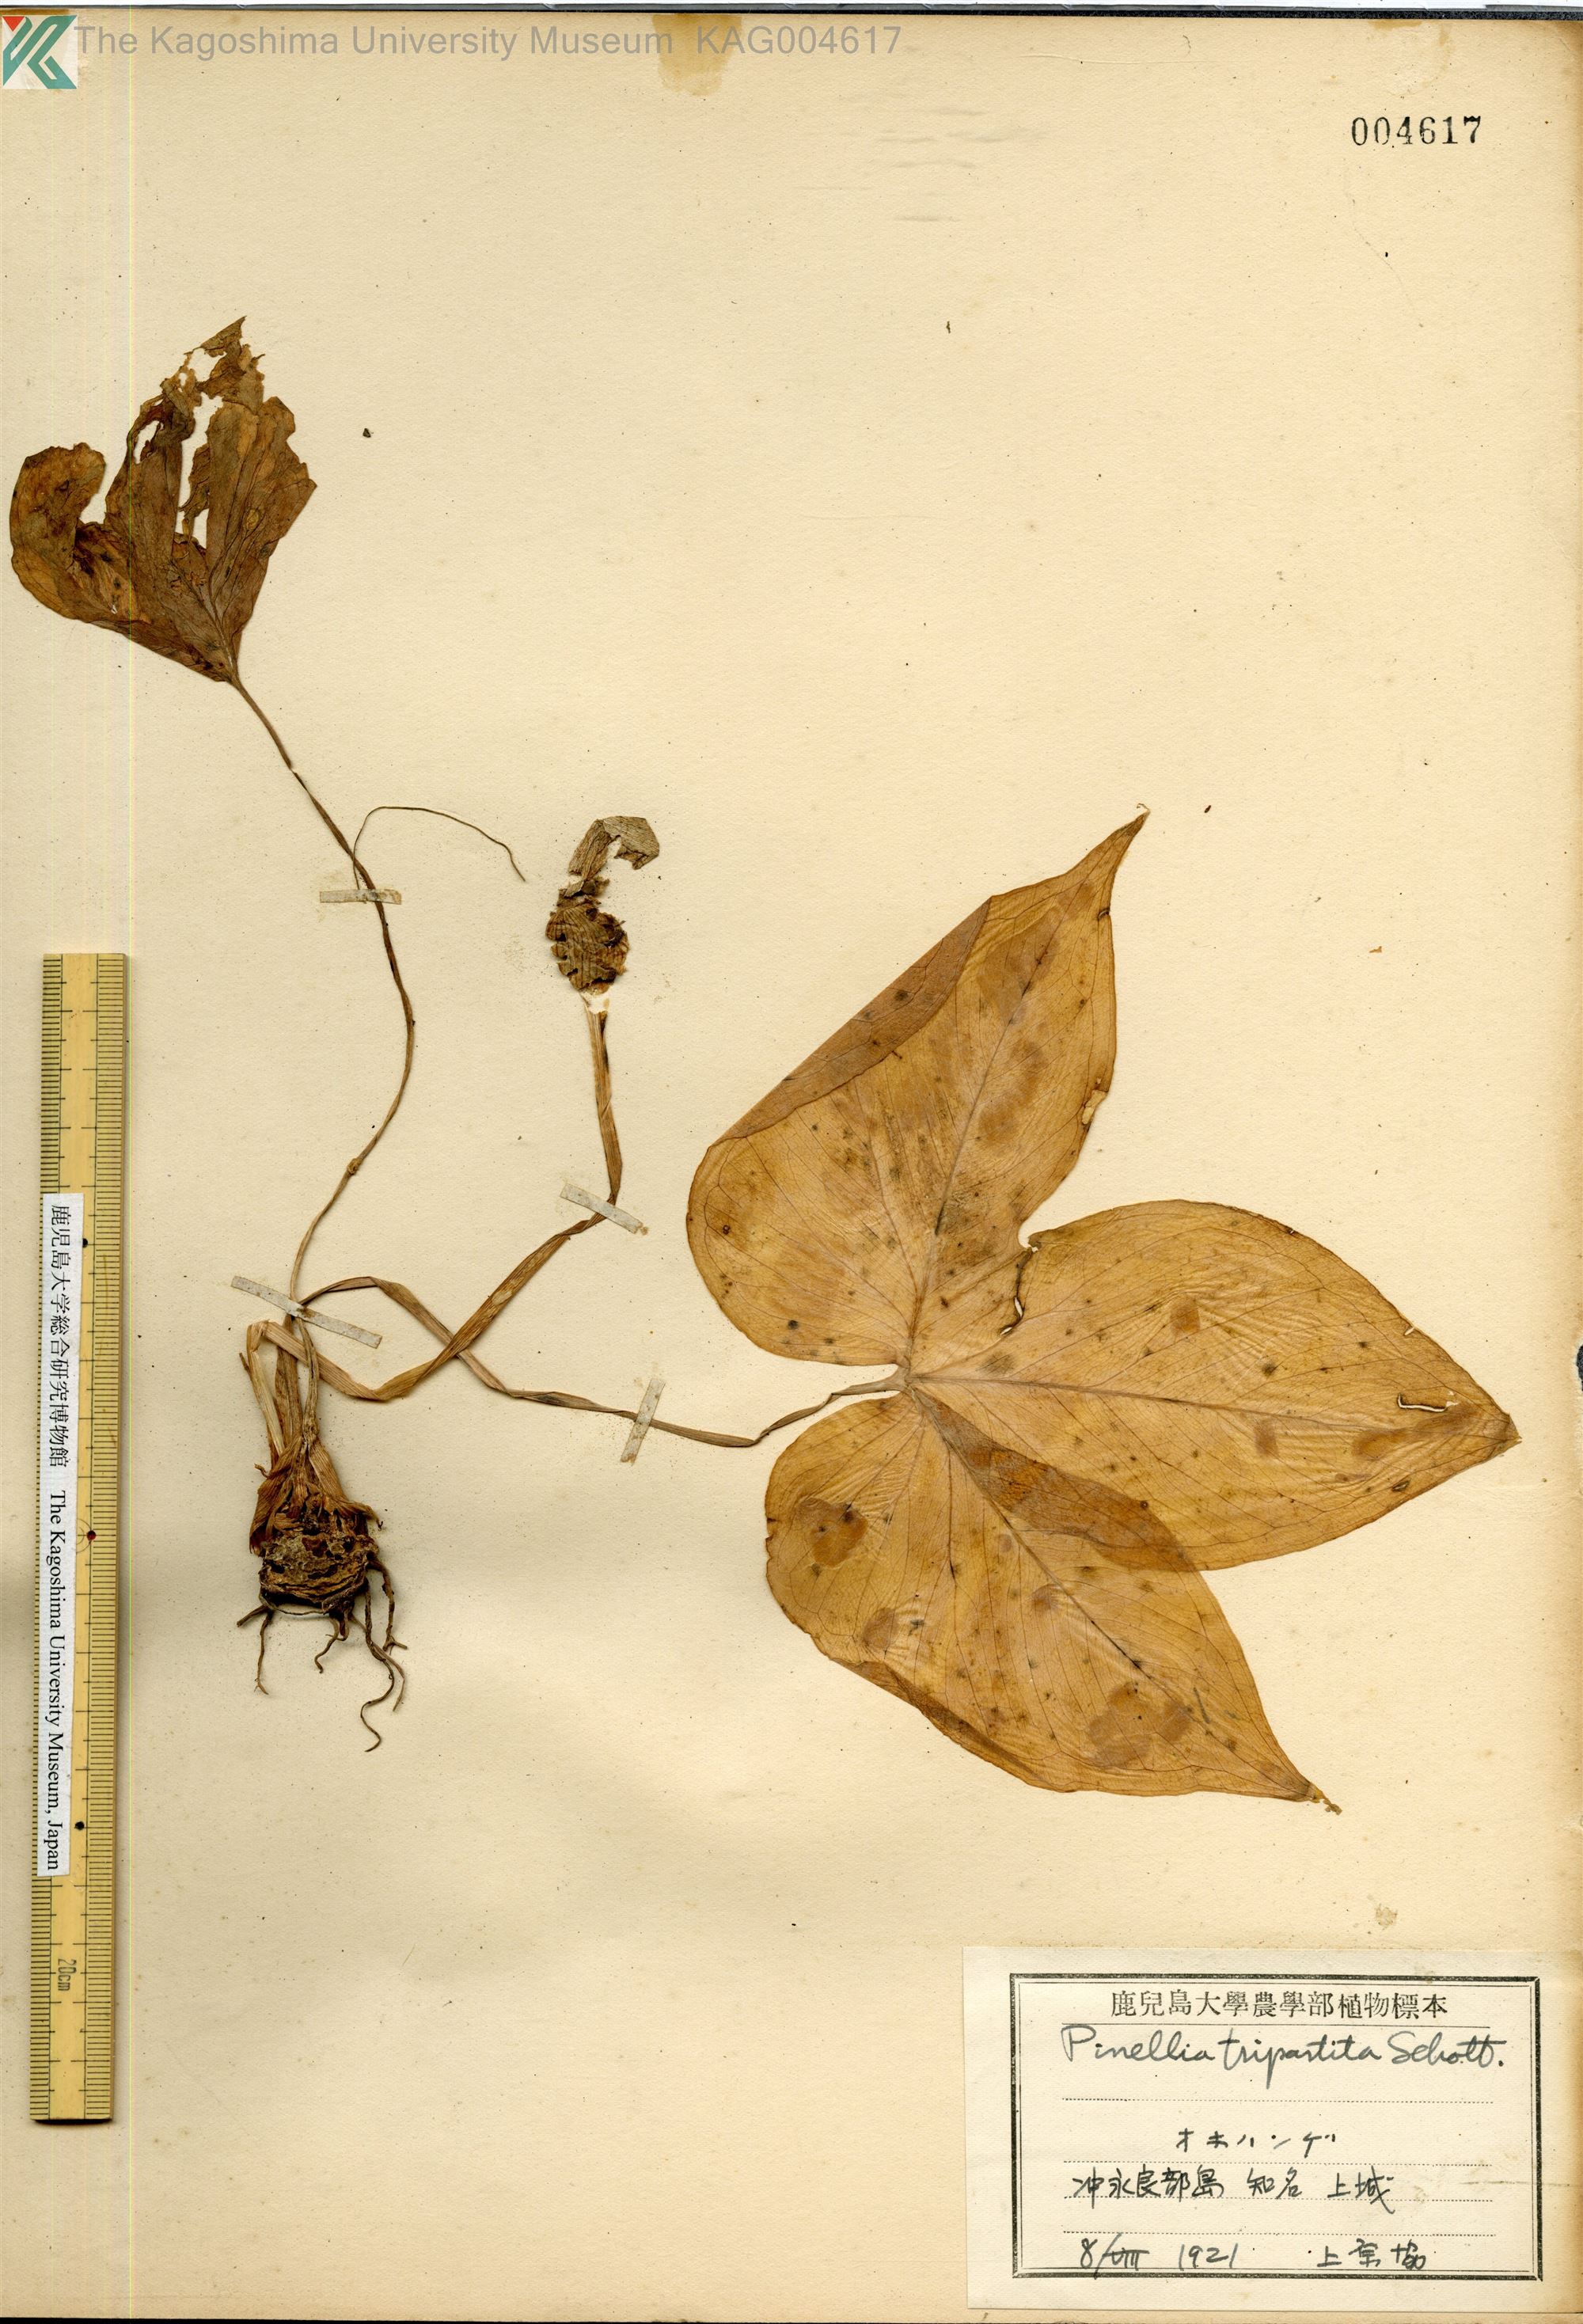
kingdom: Plantae
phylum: Tracheophyta
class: Liliopsida
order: Alismatales
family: Araceae
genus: Pinellia
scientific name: Pinellia tripartita
